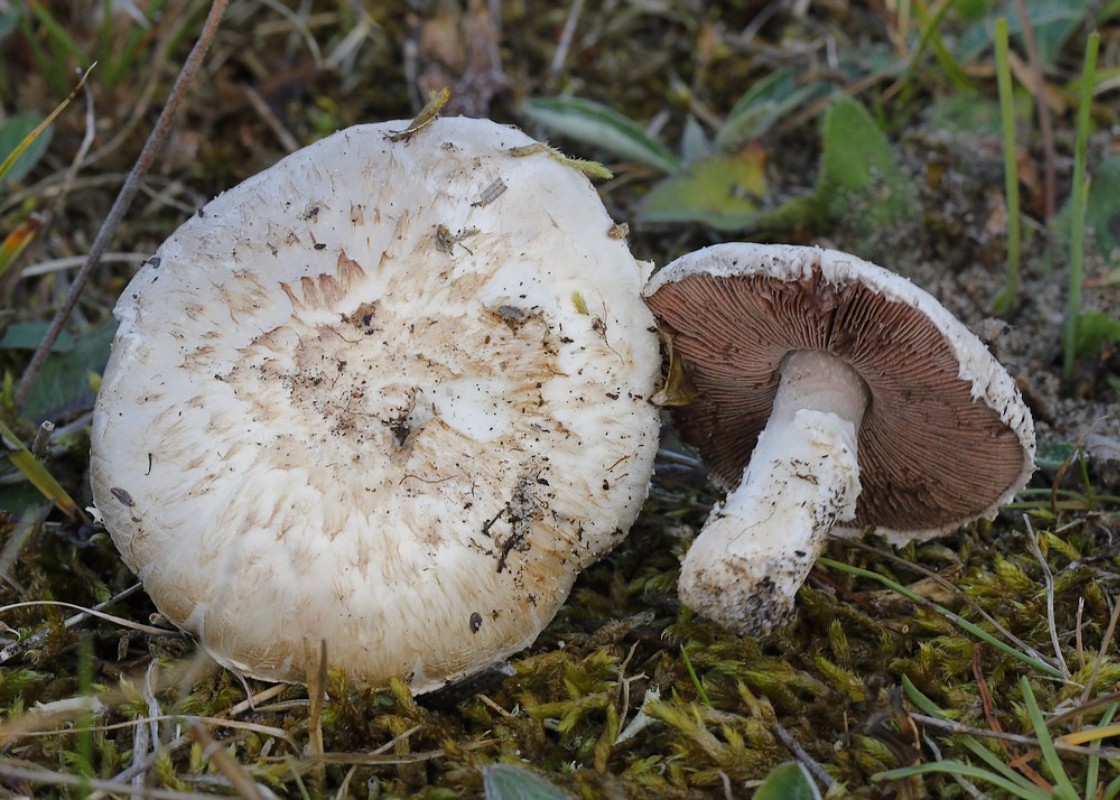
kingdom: Fungi
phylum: Basidiomycota
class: Agaricomycetes
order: Agaricales
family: Agaricaceae
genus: Agaricus
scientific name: Agaricus
